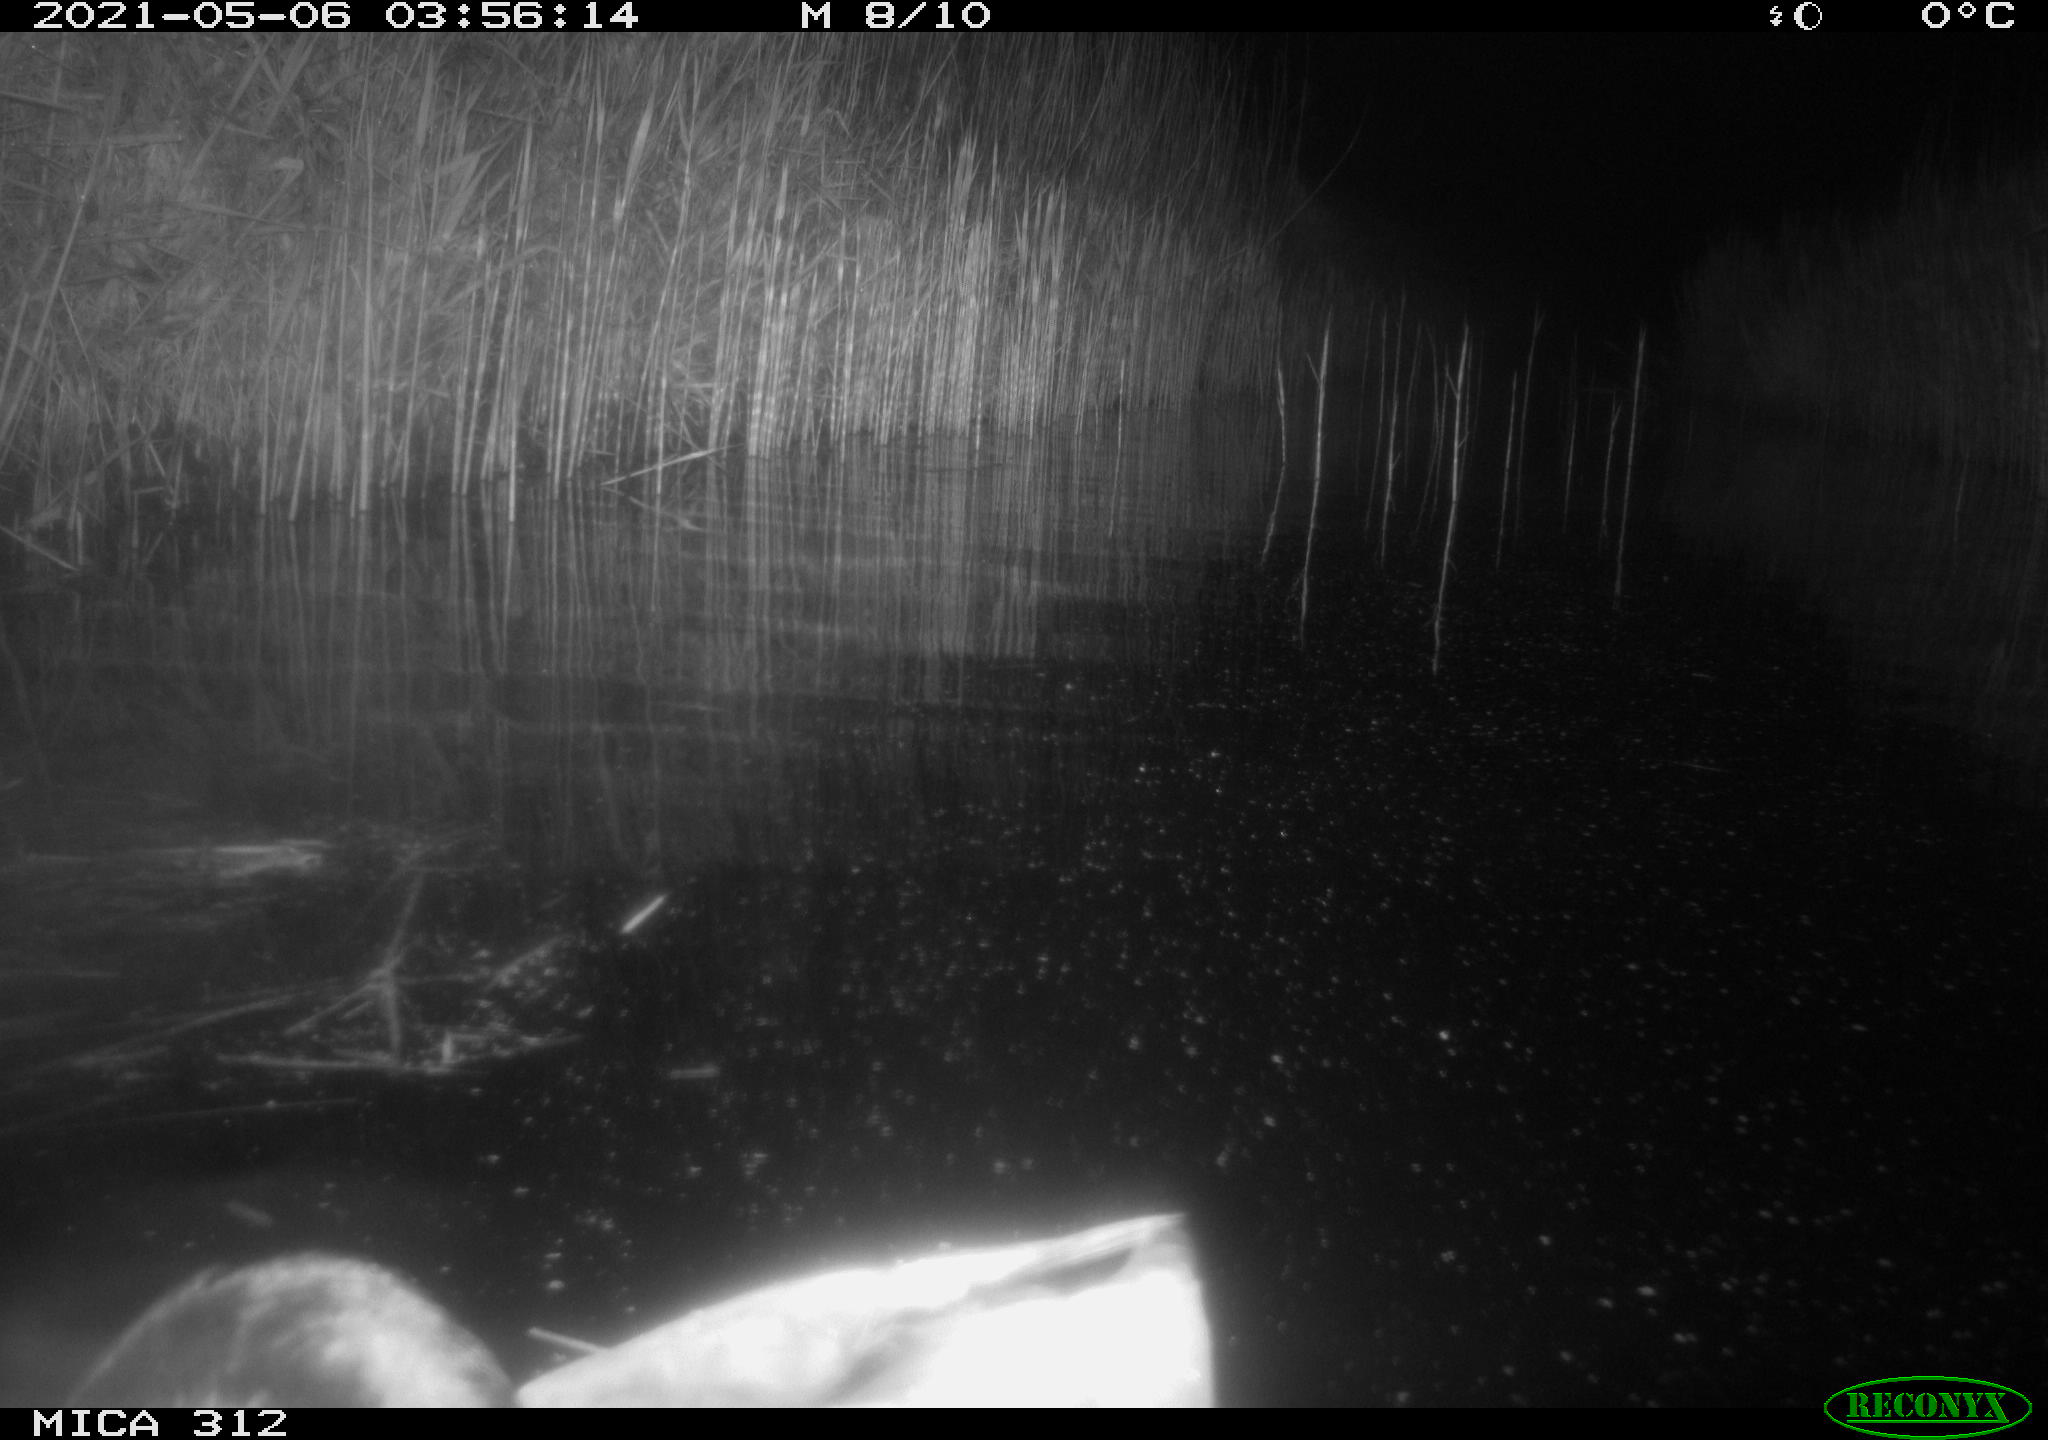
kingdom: Animalia
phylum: Chordata
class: Aves
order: Anseriformes
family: Anatidae
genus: Anas
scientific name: Anas platyrhynchos
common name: Mallard
